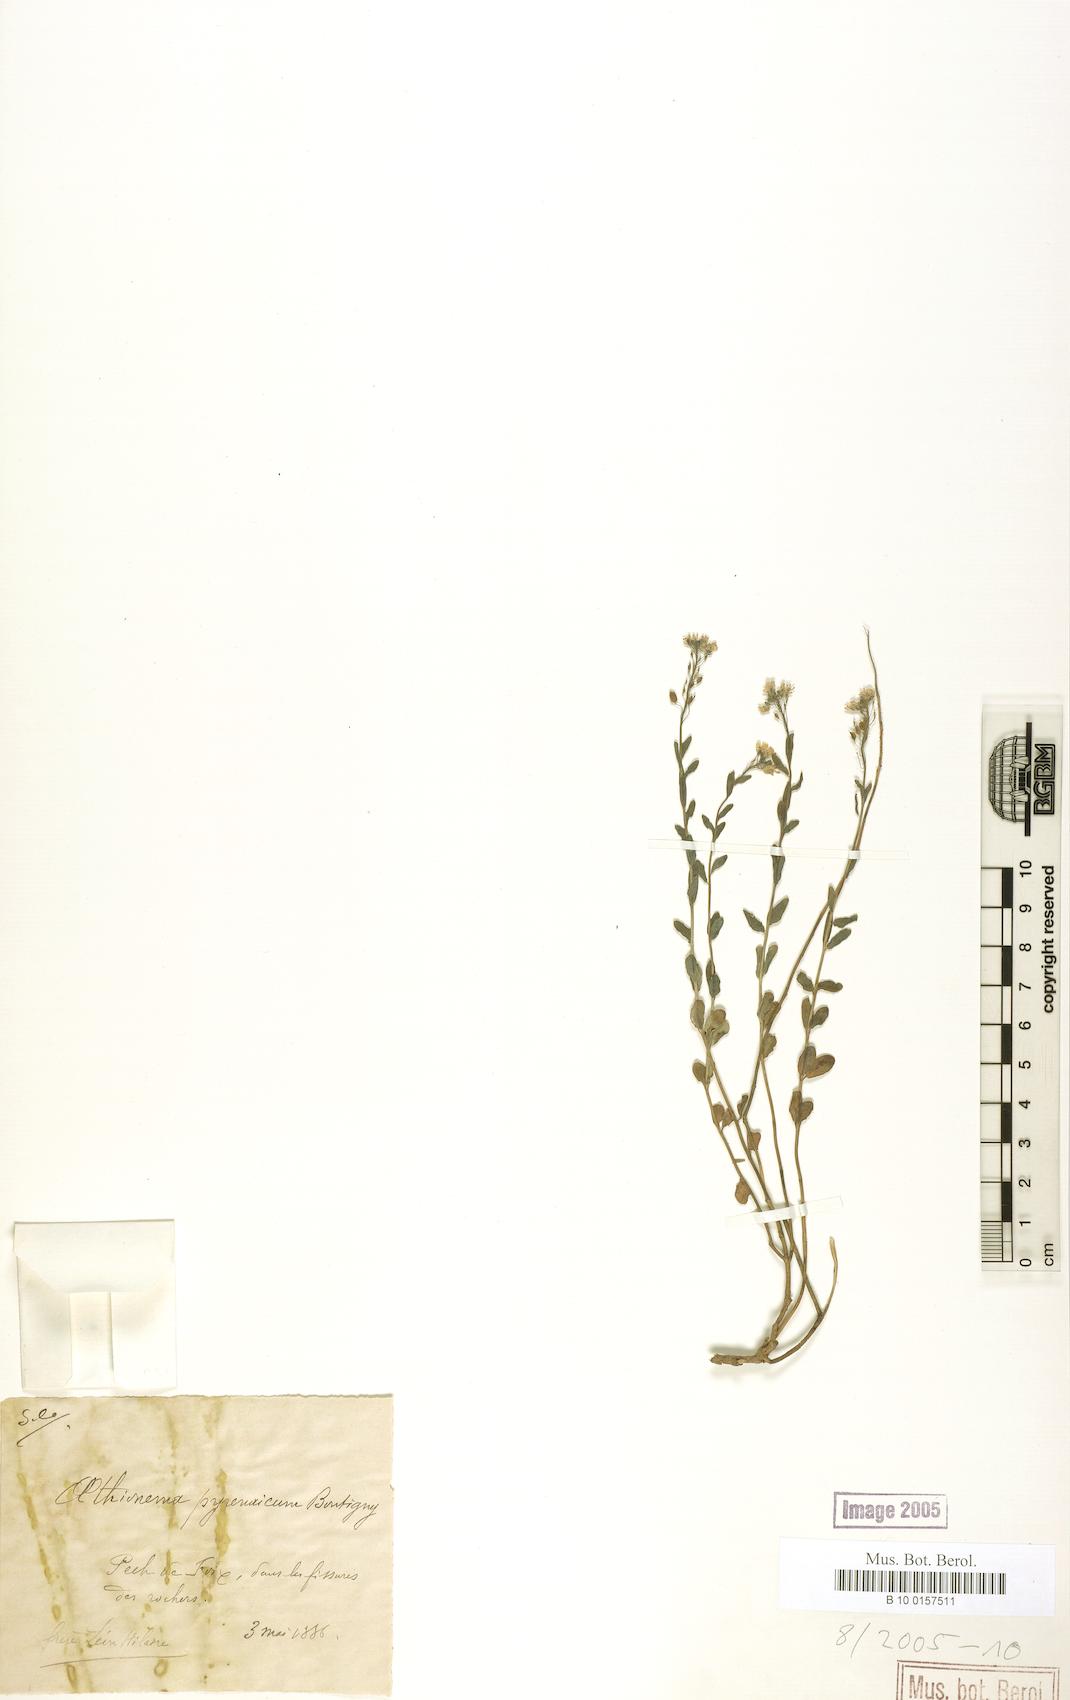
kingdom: Plantae
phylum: Tracheophyta
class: Magnoliopsida
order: Brassicales
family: Brassicaceae
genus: Aethionema
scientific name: Aethionema saxatile
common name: Burnt candytuft
